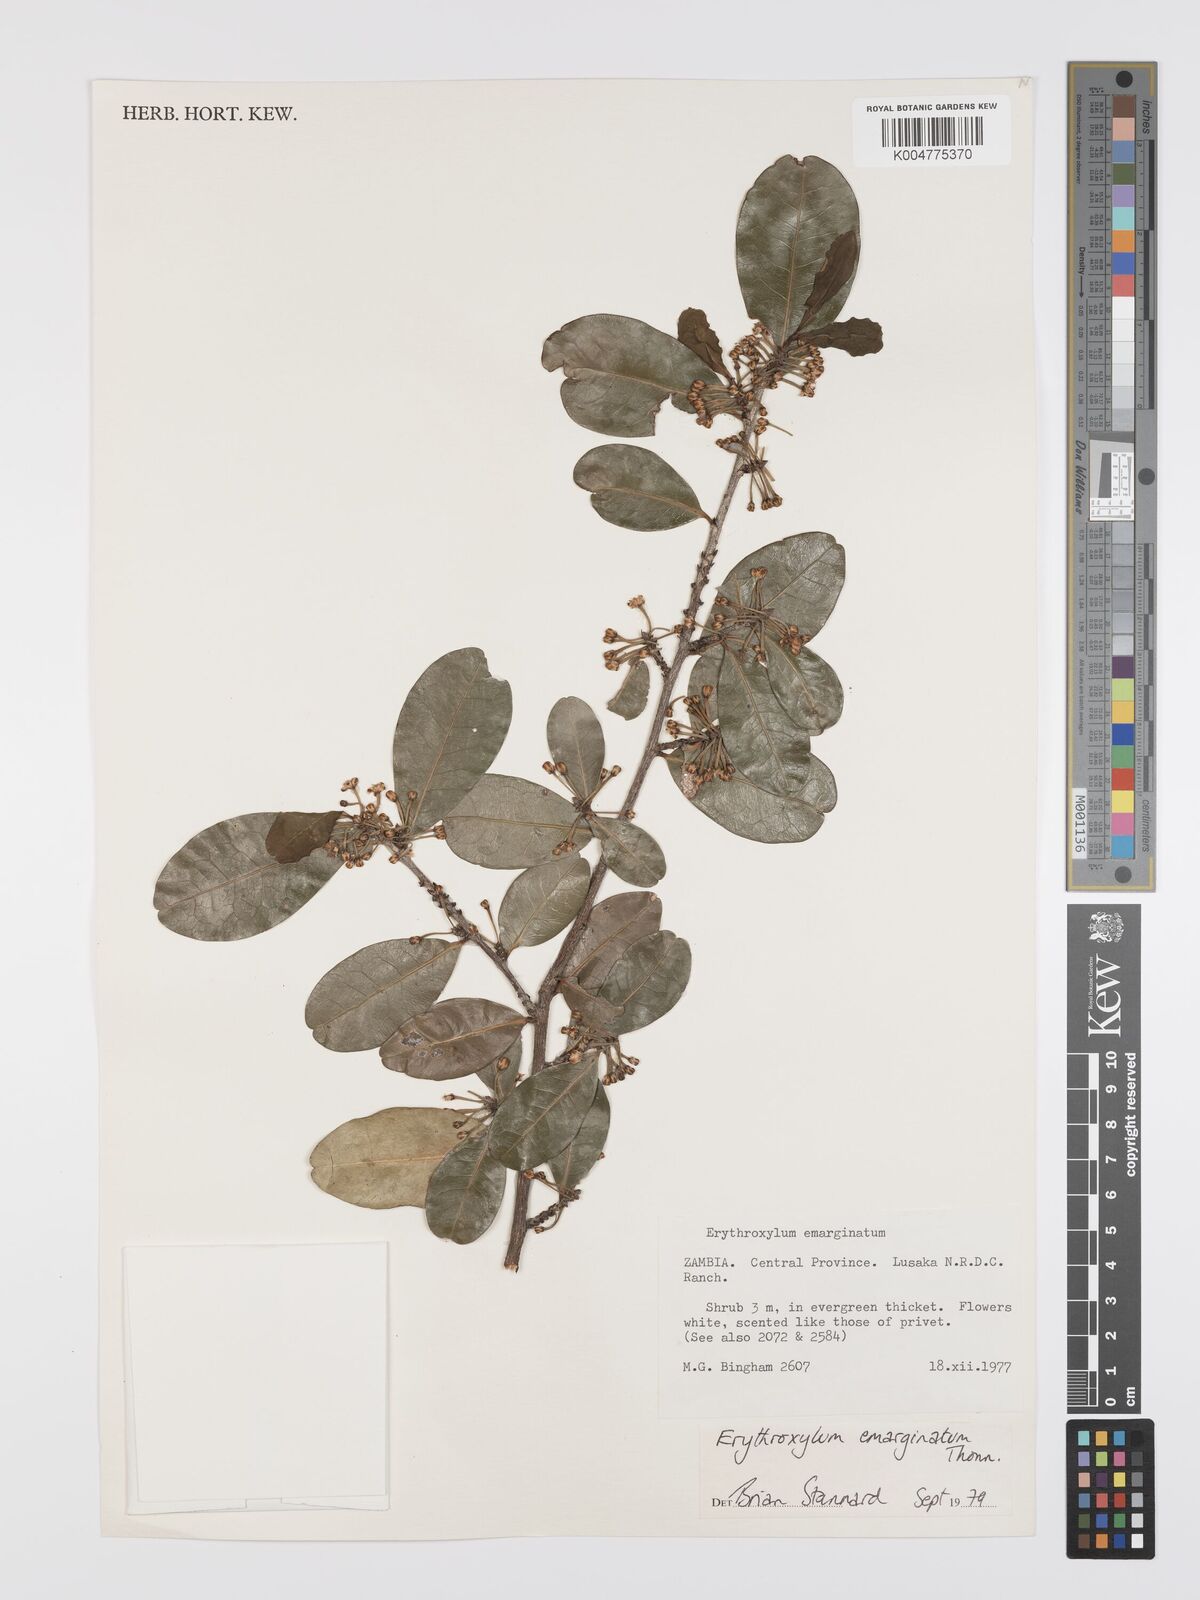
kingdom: Plantae
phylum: Tracheophyta
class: Magnoliopsida
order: Malpighiales
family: Erythroxylaceae
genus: Erythroxylum
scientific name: Erythroxylum
